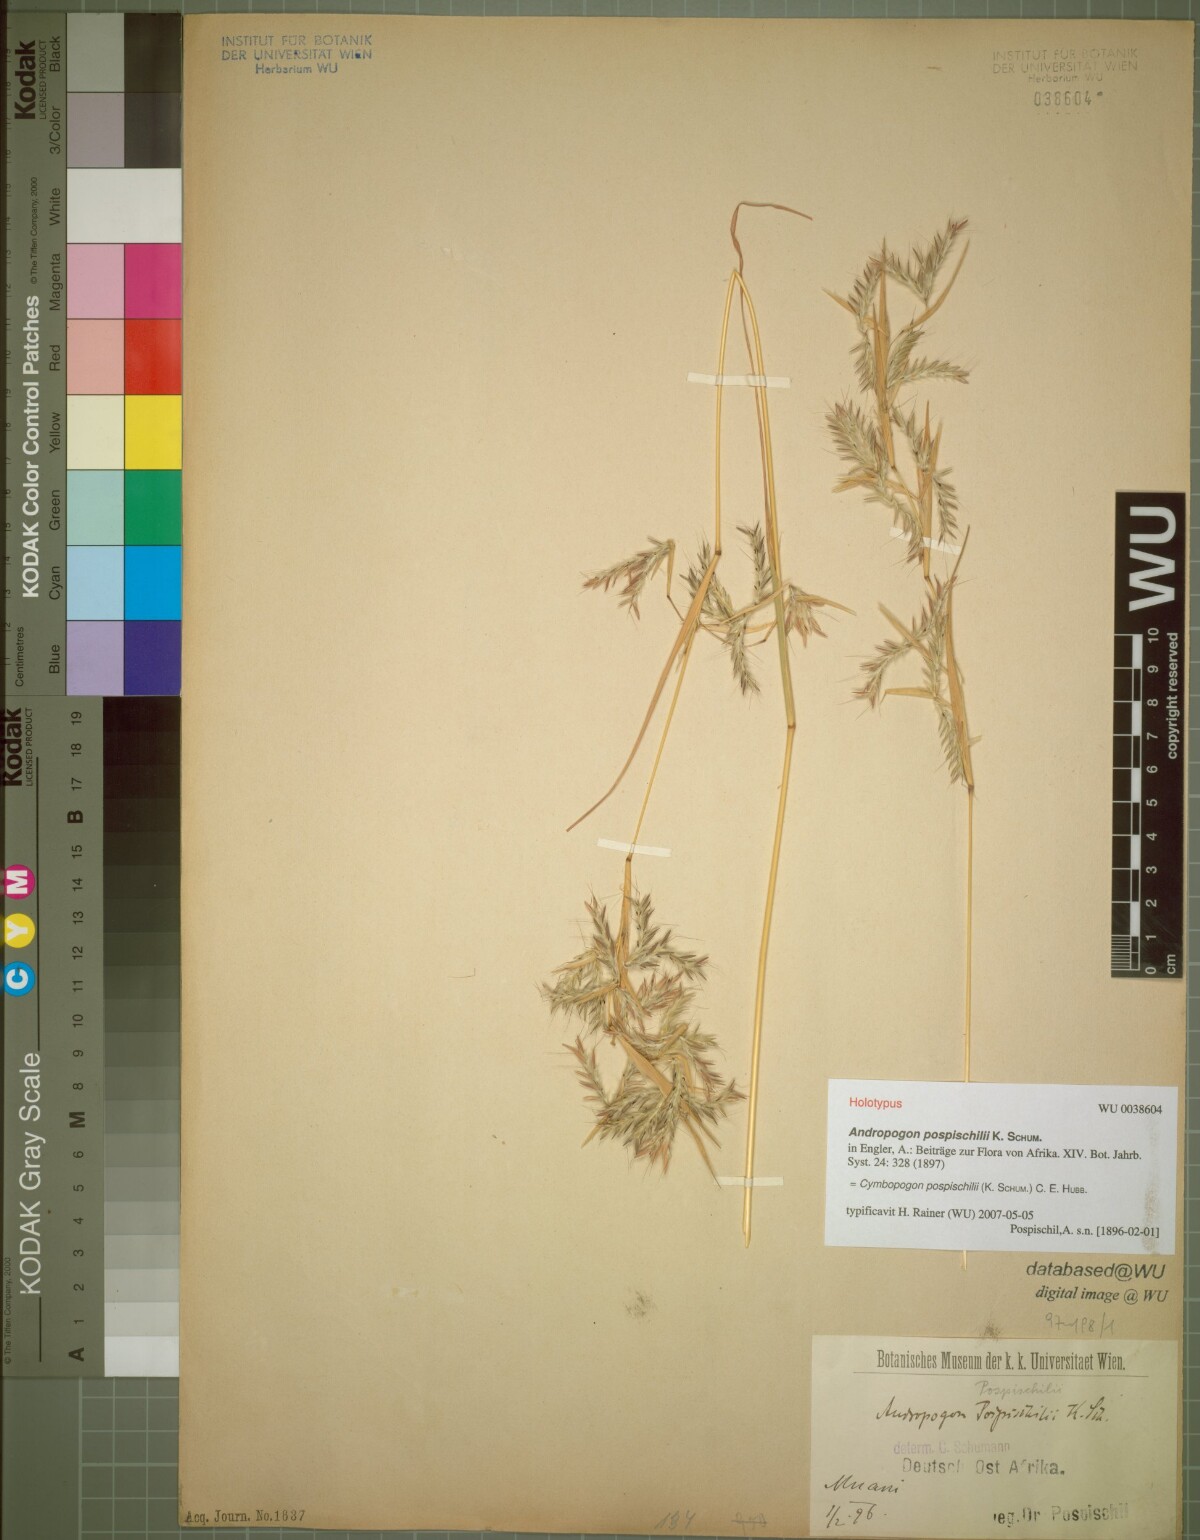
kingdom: Plantae
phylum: Tracheophyta
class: Liliopsida
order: Poales
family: Poaceae
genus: Cymbopogon
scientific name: Cymbopogon pospischilii
